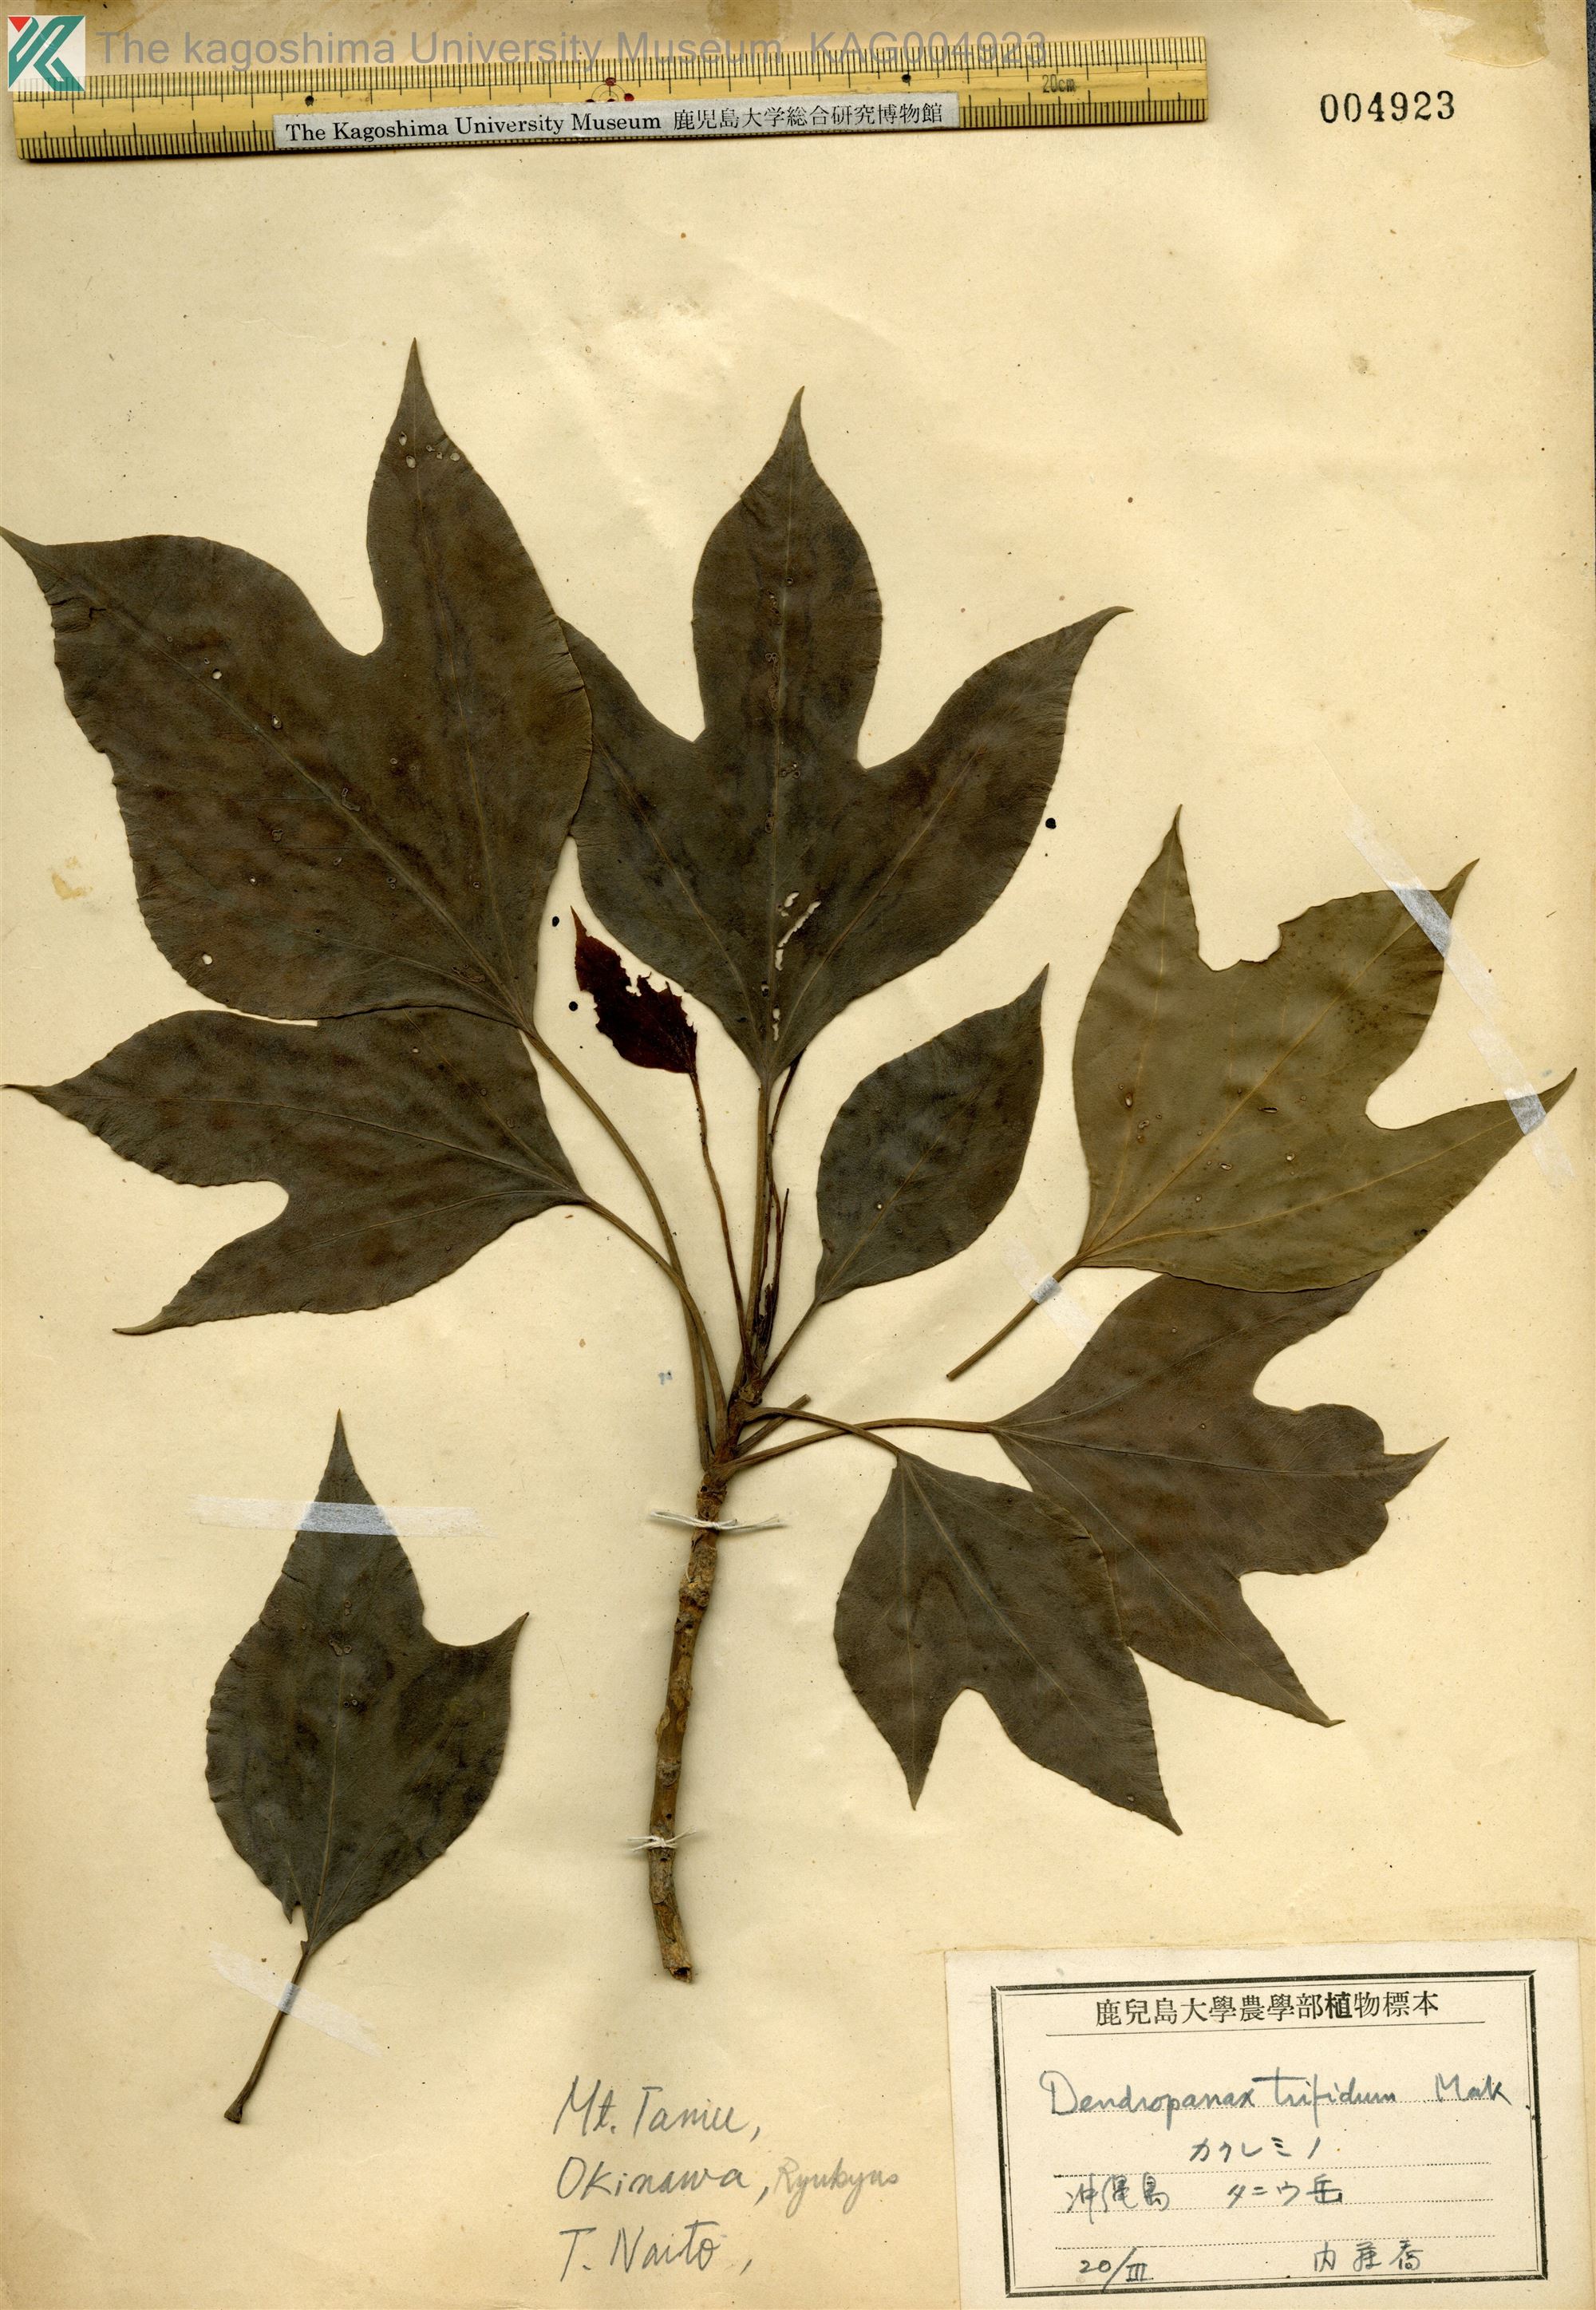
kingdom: Plantae
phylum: Tracheophyta
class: Magnoliopsida
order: Apiales
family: Araliaceae
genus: Dendropanax
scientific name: Dendropanax trifidus
